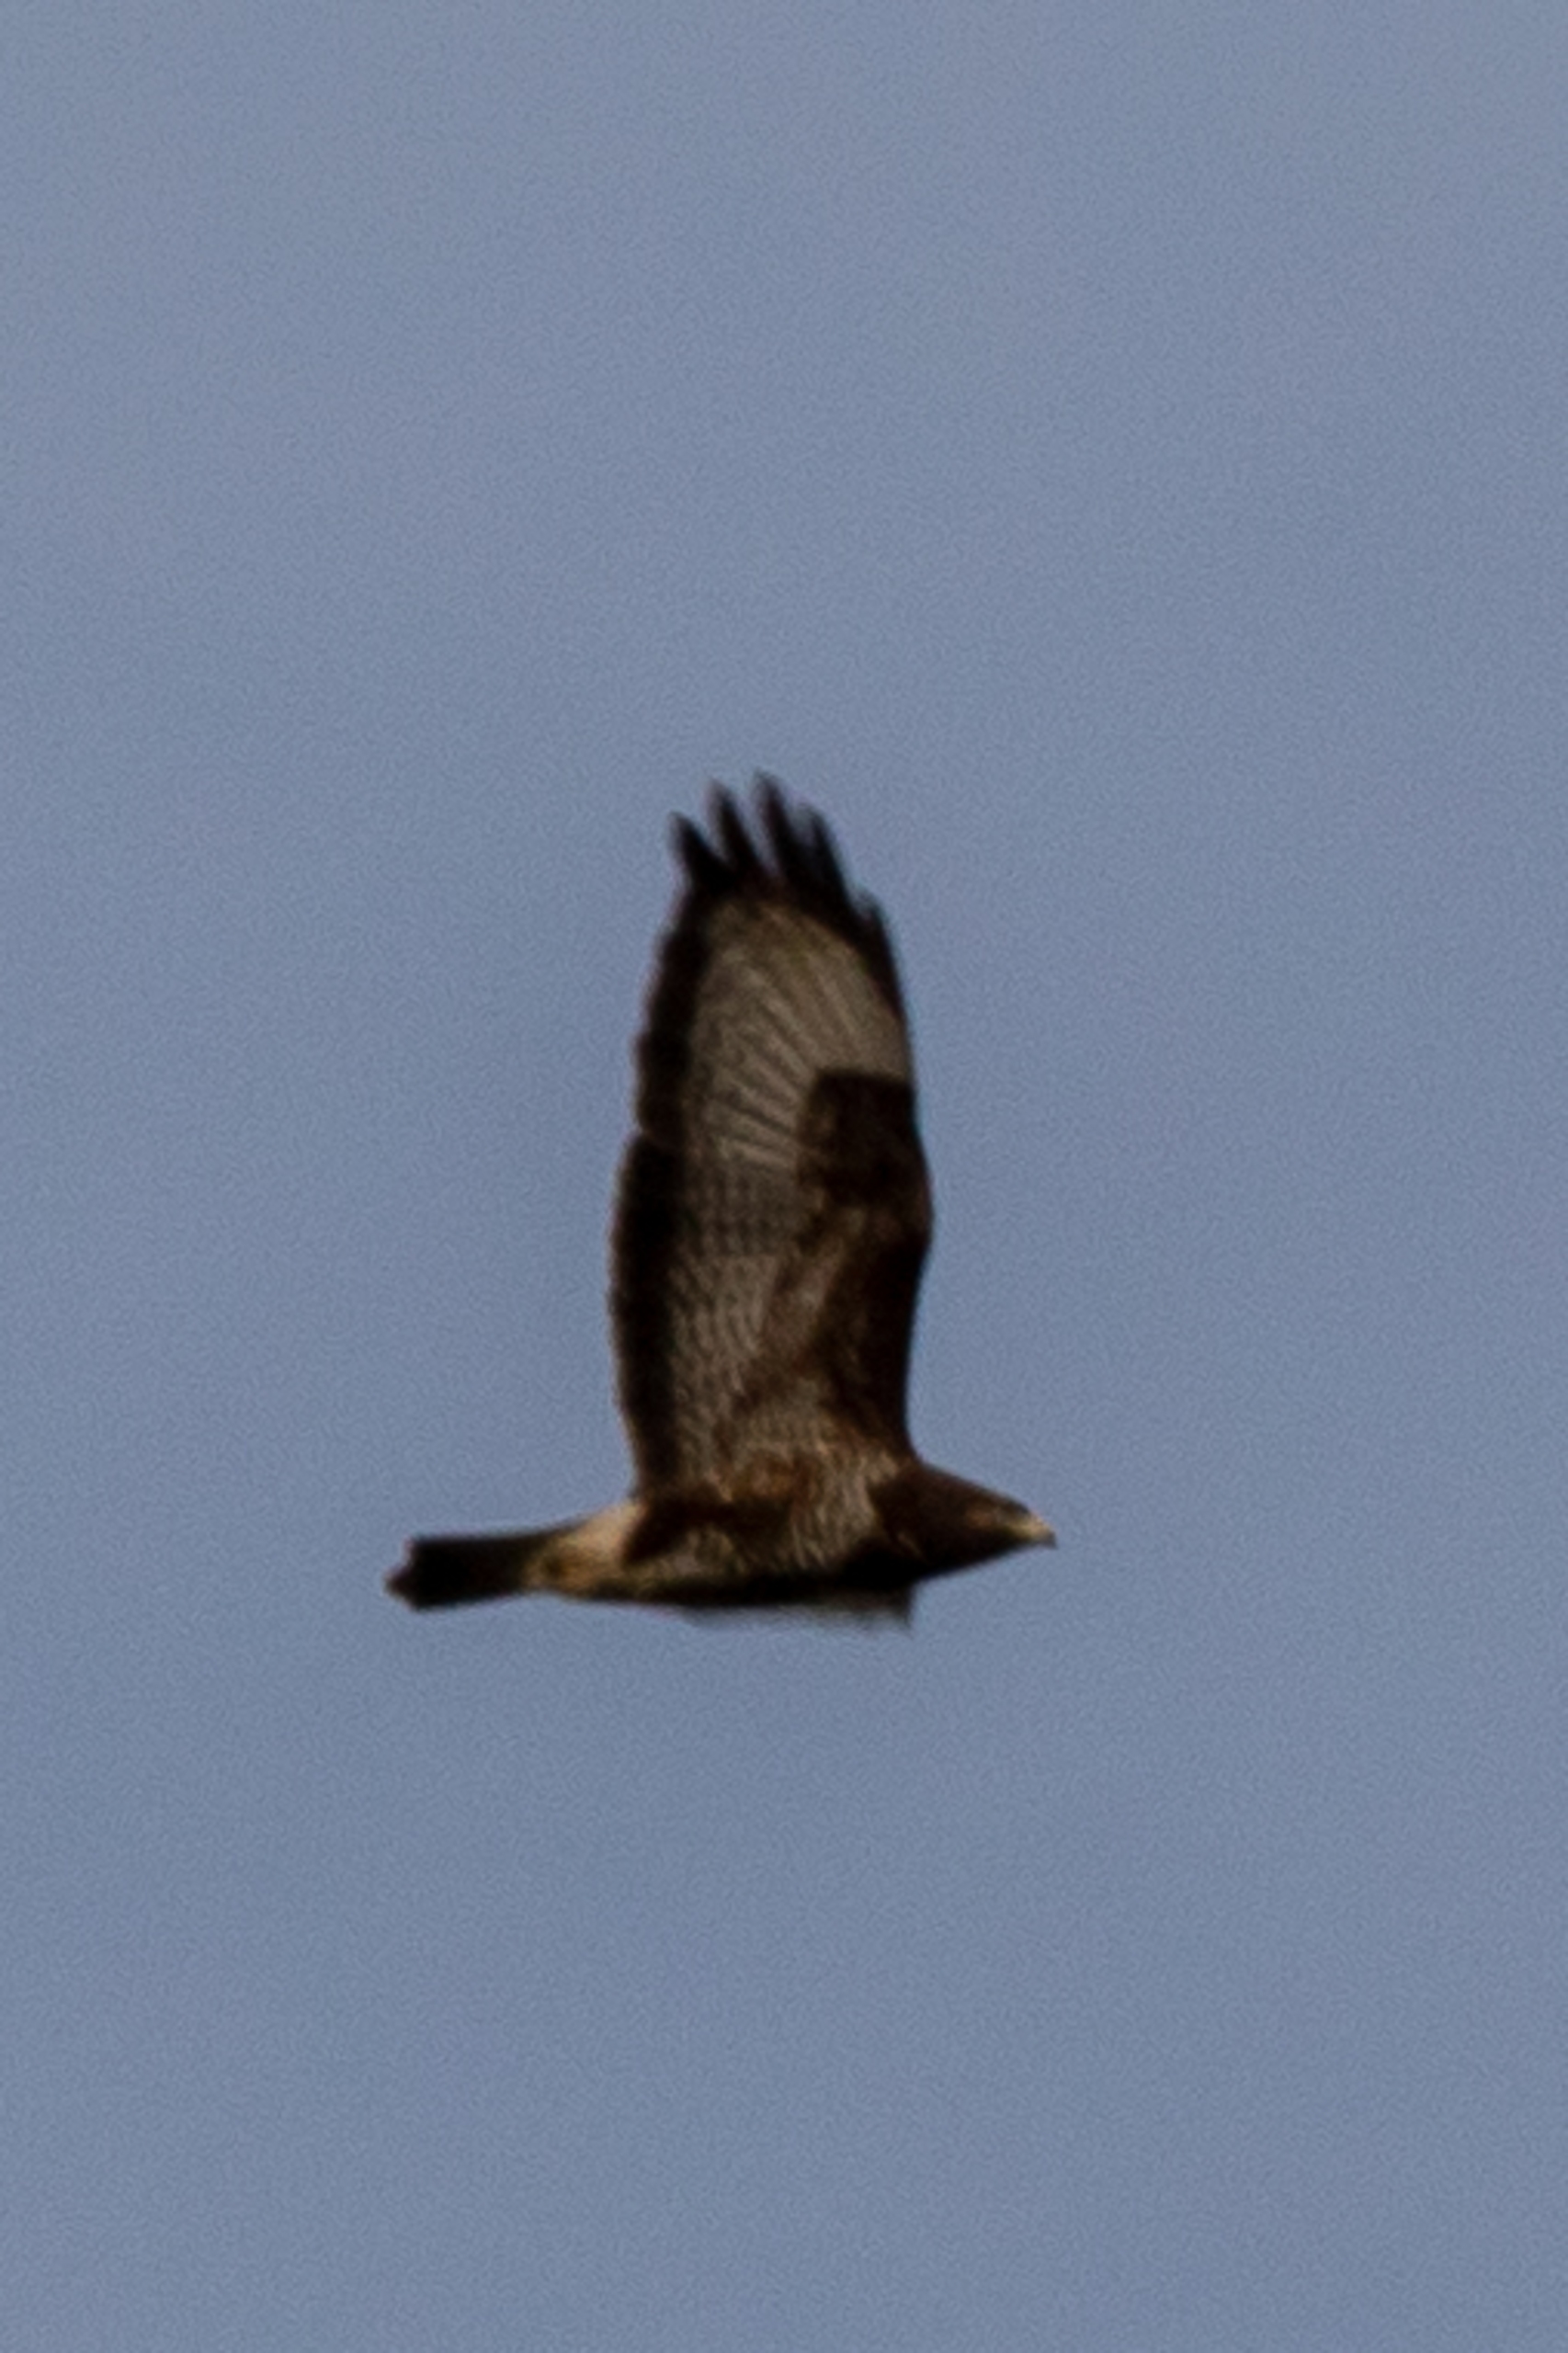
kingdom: Animalia
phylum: Chordata
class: Aves
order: Accipitriformes
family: Accipitridae
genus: Buteo
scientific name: Buteo buteo
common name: Musvåge
